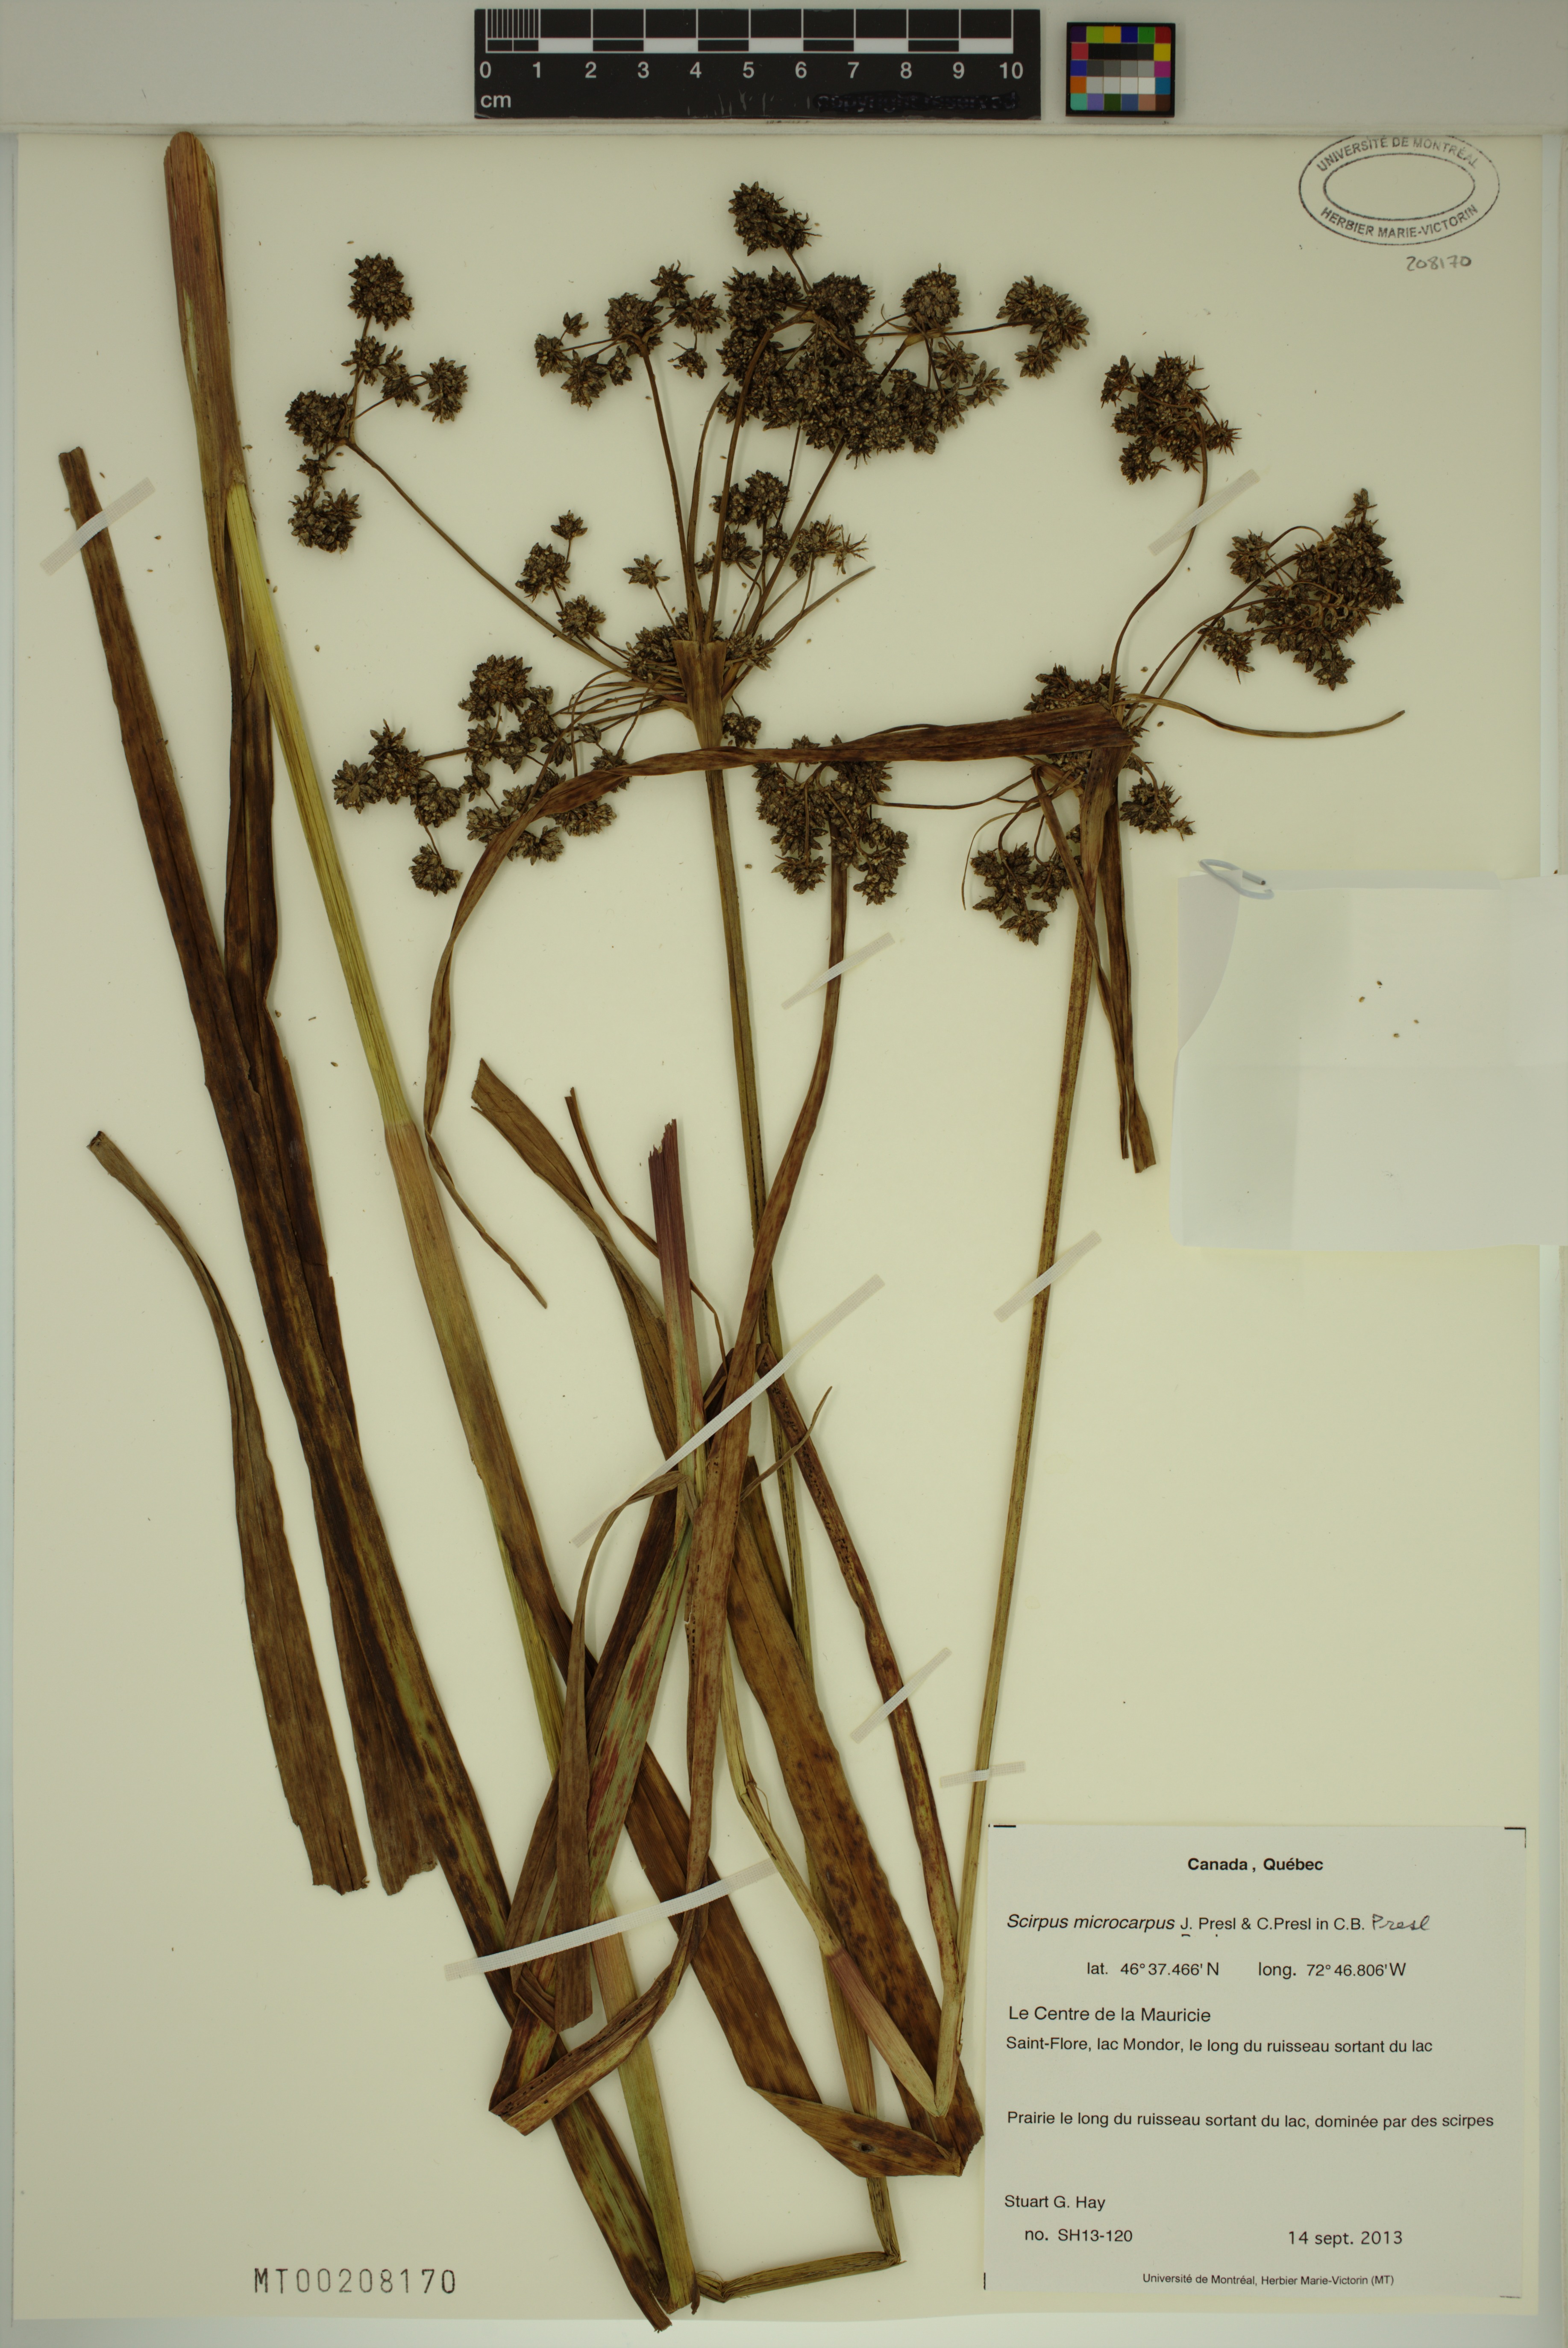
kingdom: Plantae
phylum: Tracheophyta
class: Liliopsida
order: Poales
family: Cyperaceae
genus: Scirpus
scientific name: Scirpus microcarpus
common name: Panicled bulrush
